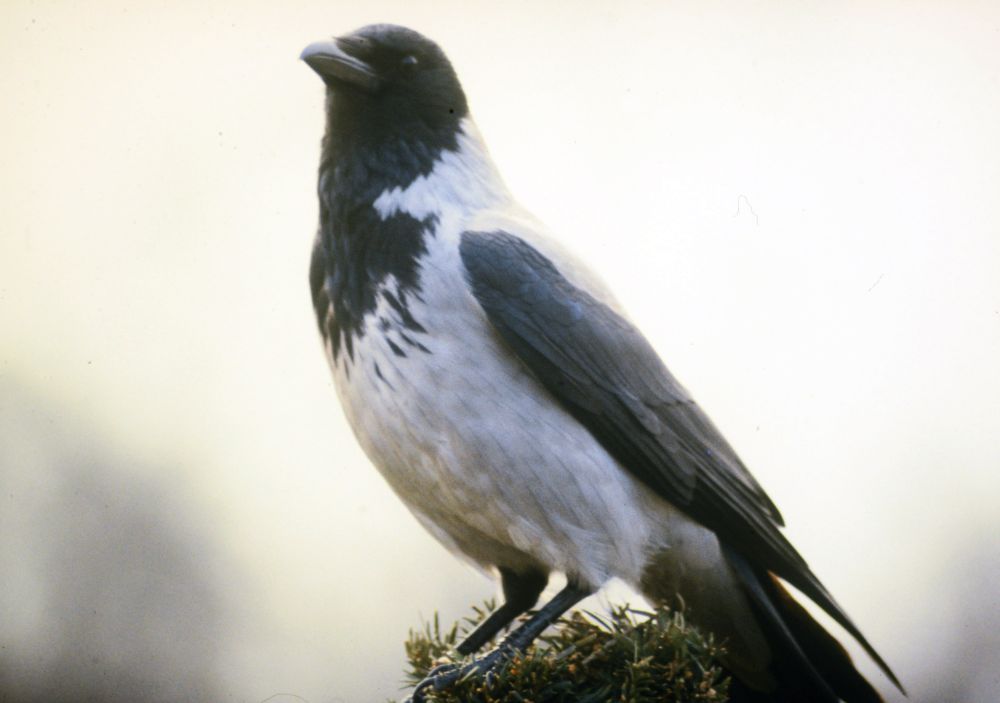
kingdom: Animalia
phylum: Chordata
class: Aves
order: Passeriformes
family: Corvidae
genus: Corvus
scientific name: Corvus cornix
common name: Hooded crow
